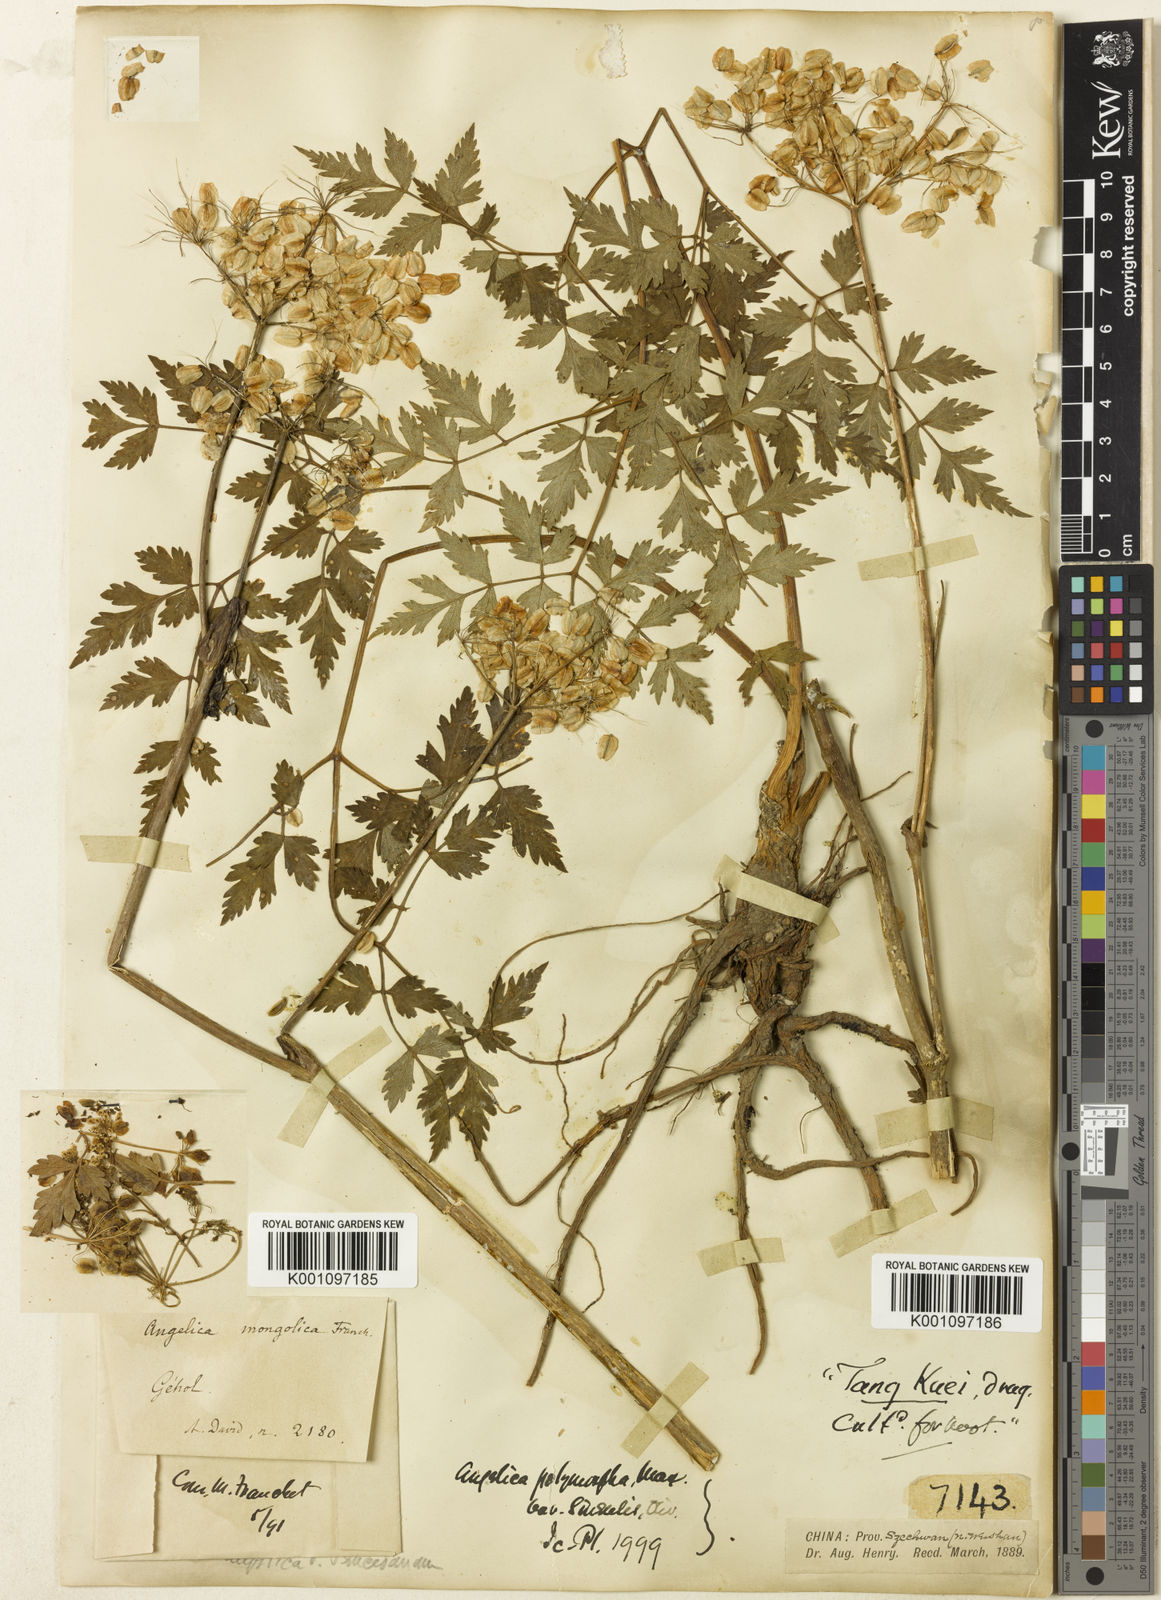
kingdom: Plantae
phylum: Tracheophyta
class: Magnoliopsida
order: Apiales
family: Apiaceae
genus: Angelica
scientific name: Angelica sinensis
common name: Chinese angelica
